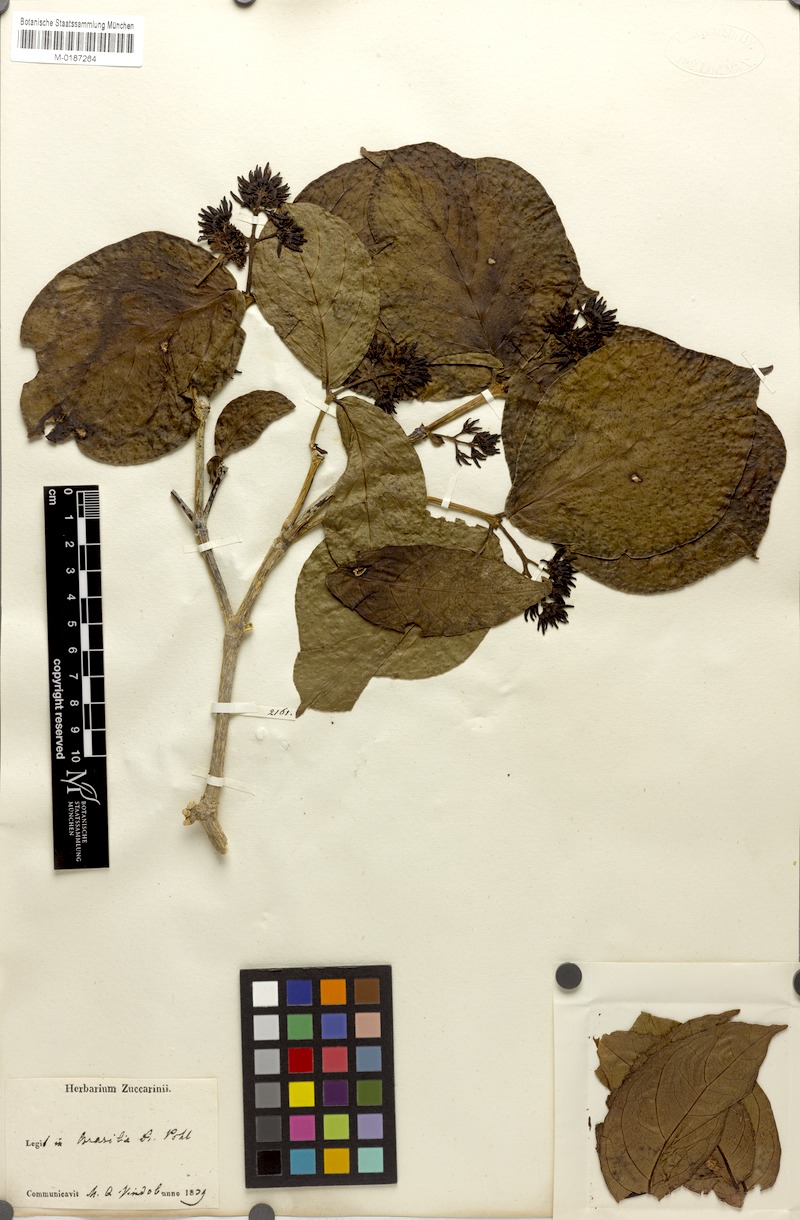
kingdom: Plantae
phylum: Tracheophyta
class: Magnoliopsida
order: Gentianales
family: Rubiaceae
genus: Coussarea
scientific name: Coussarea hydrangeifolia
